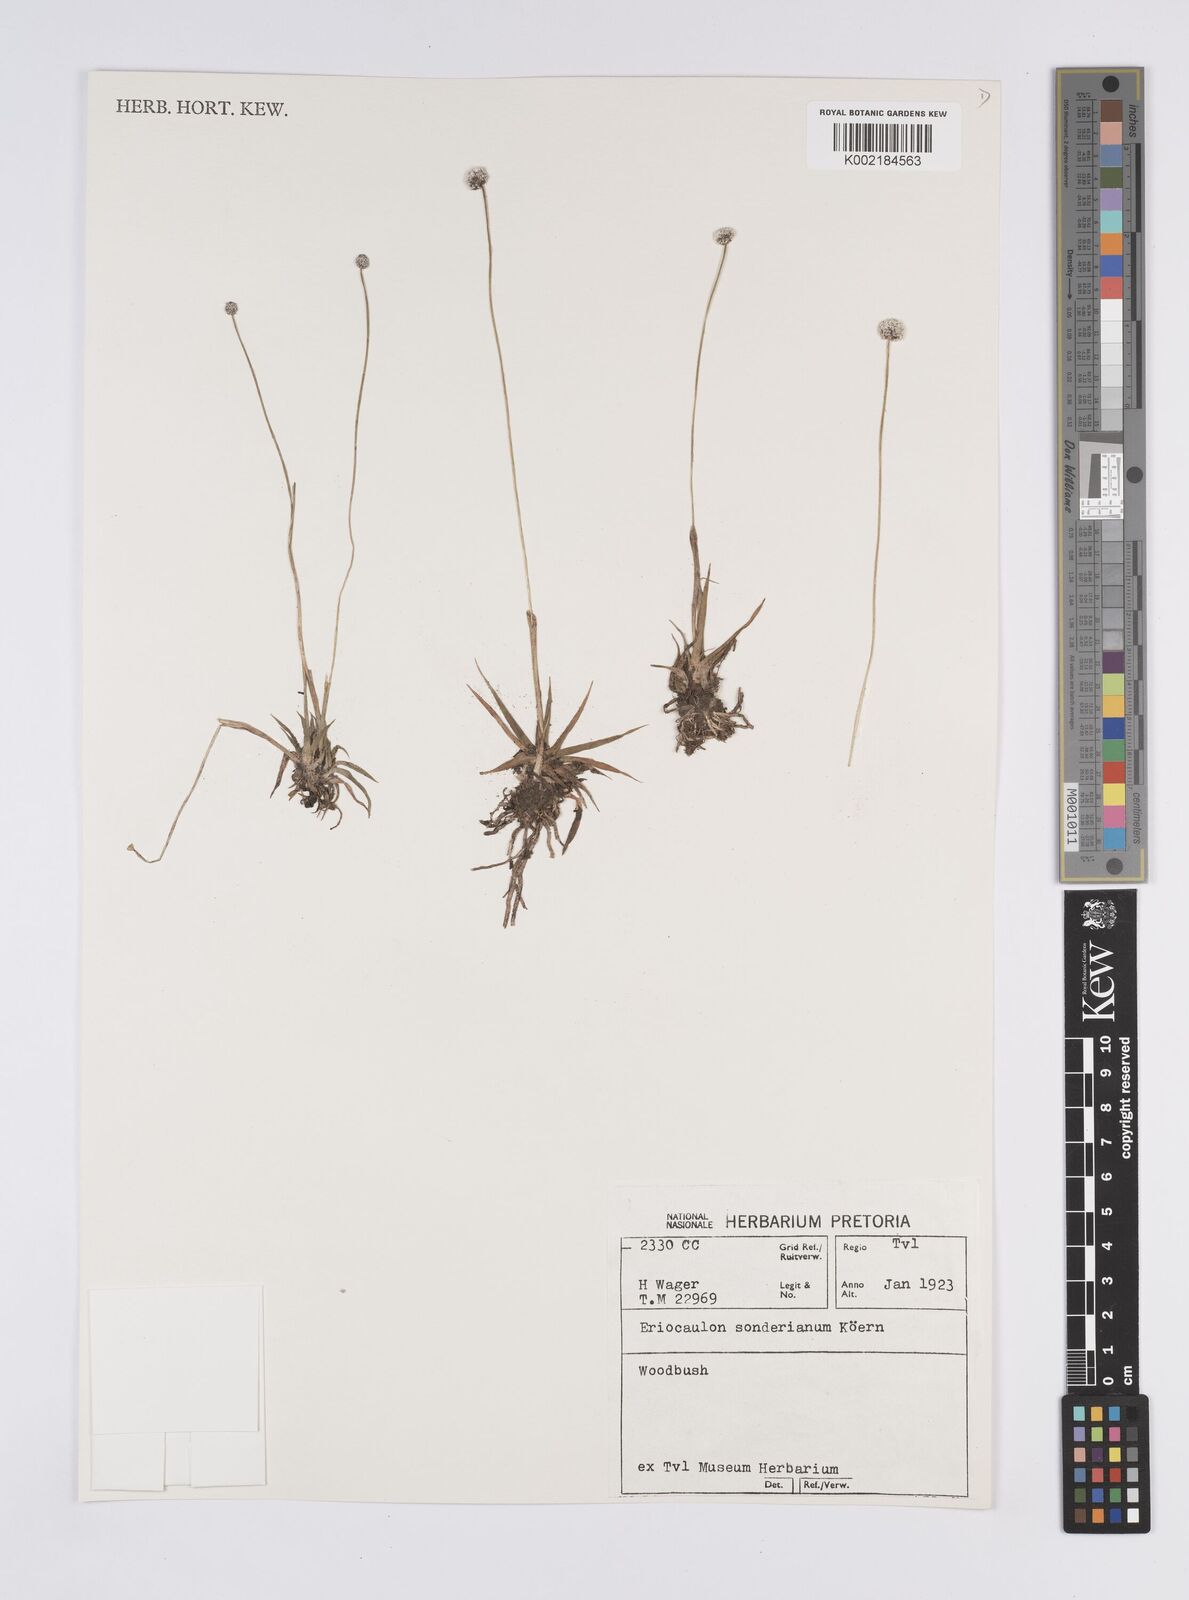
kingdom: Plantae
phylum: Tracheophyta
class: Liliopsida
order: Poales
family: Eriocaulaceae
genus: Eriocaulon
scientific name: Eriocaulon sonderianum
